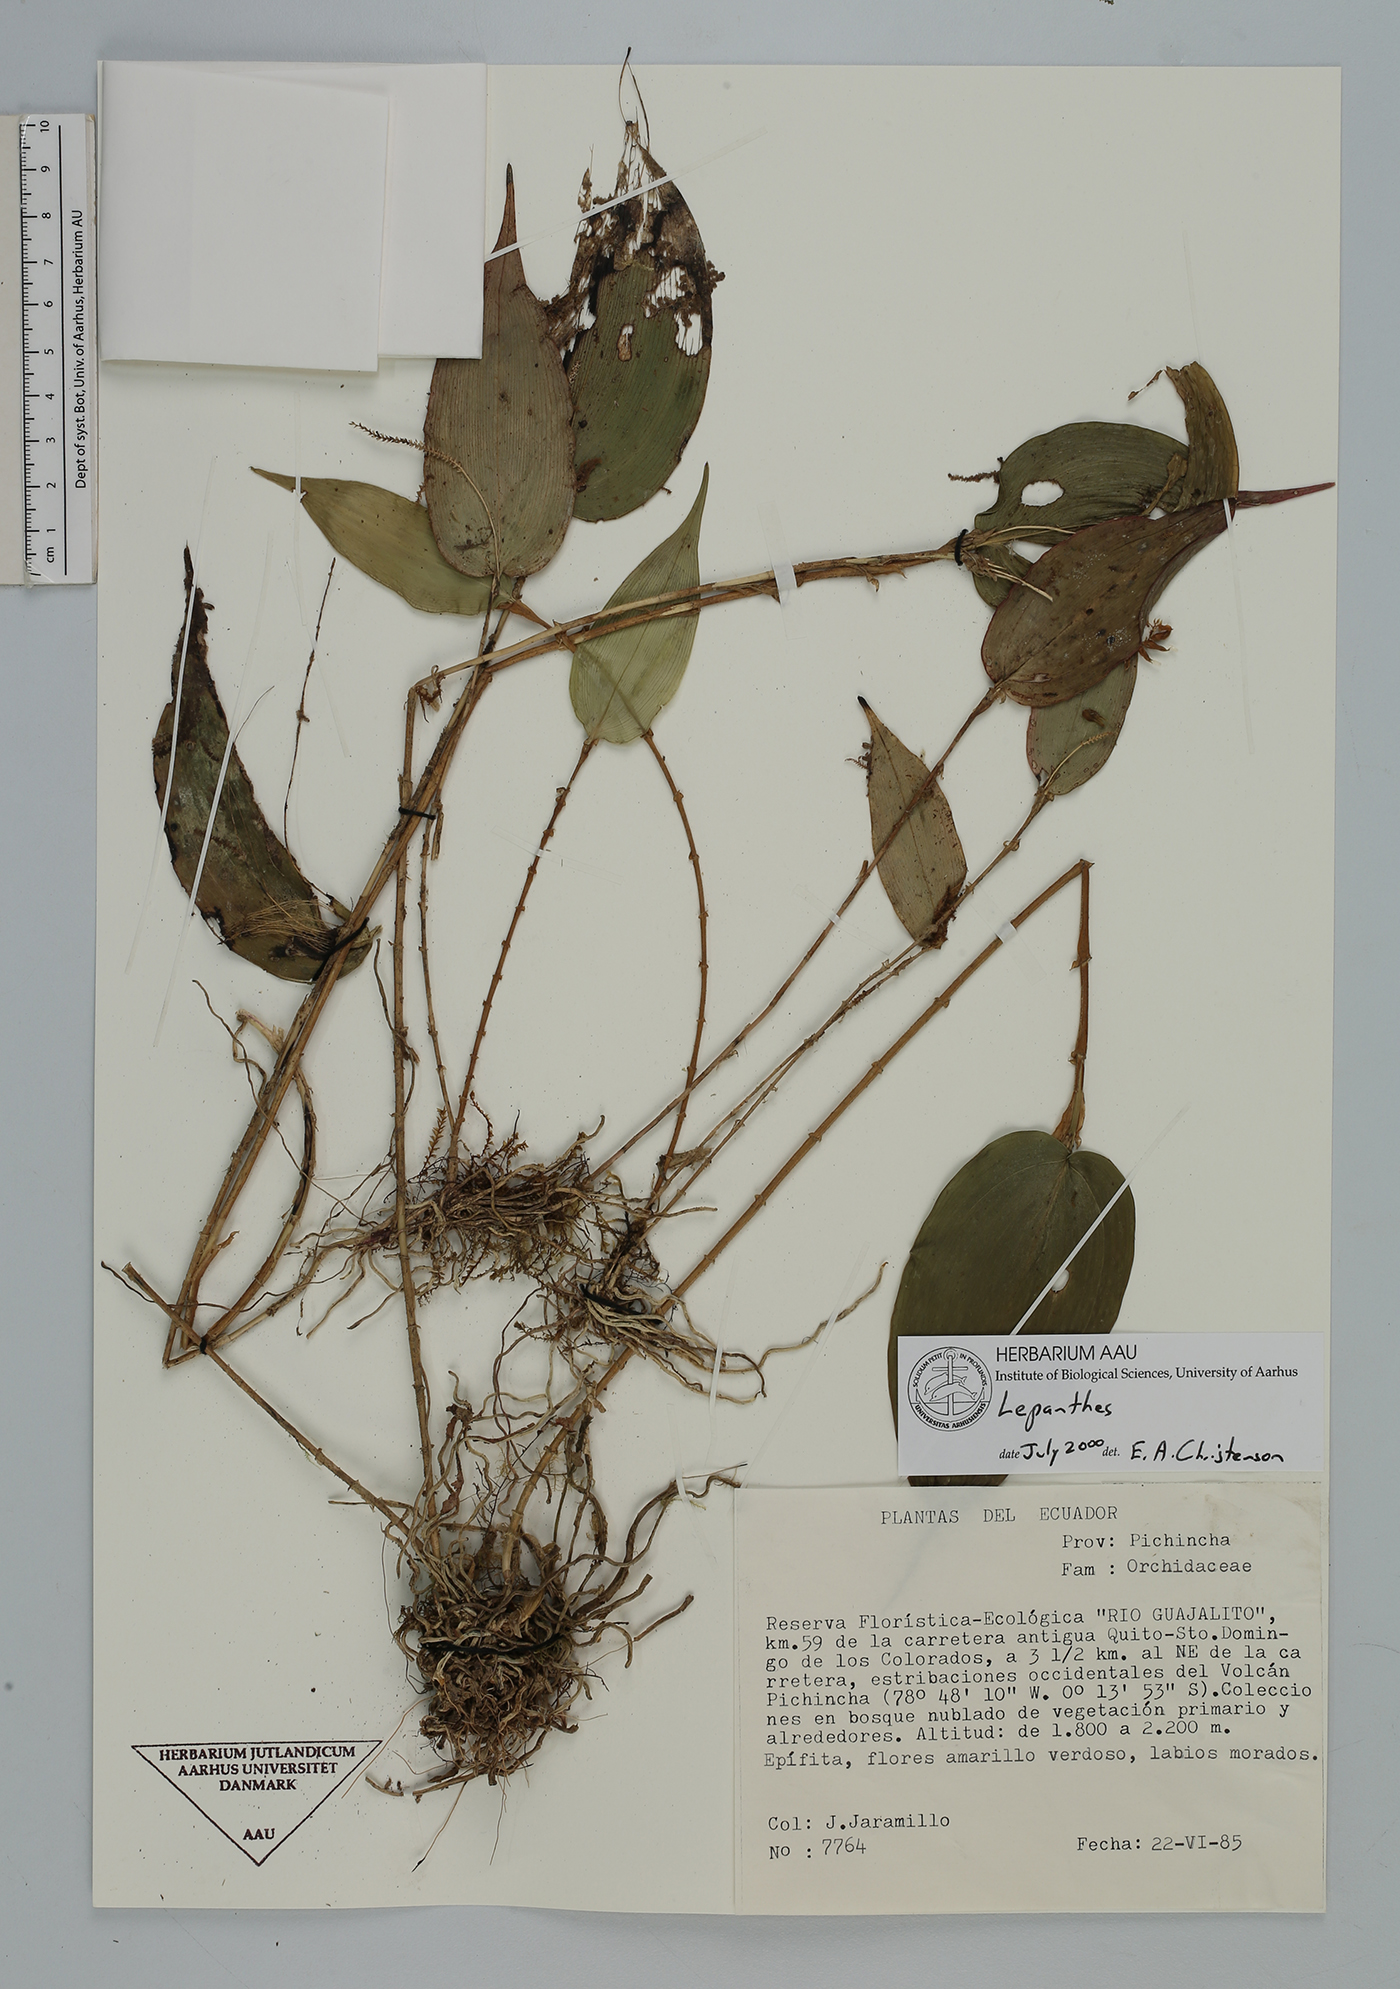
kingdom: Plantae
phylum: Tracheophyta
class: Liliopsida
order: Asparagales
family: Orchidaceae
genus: Lepanthes
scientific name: Lepanthes
